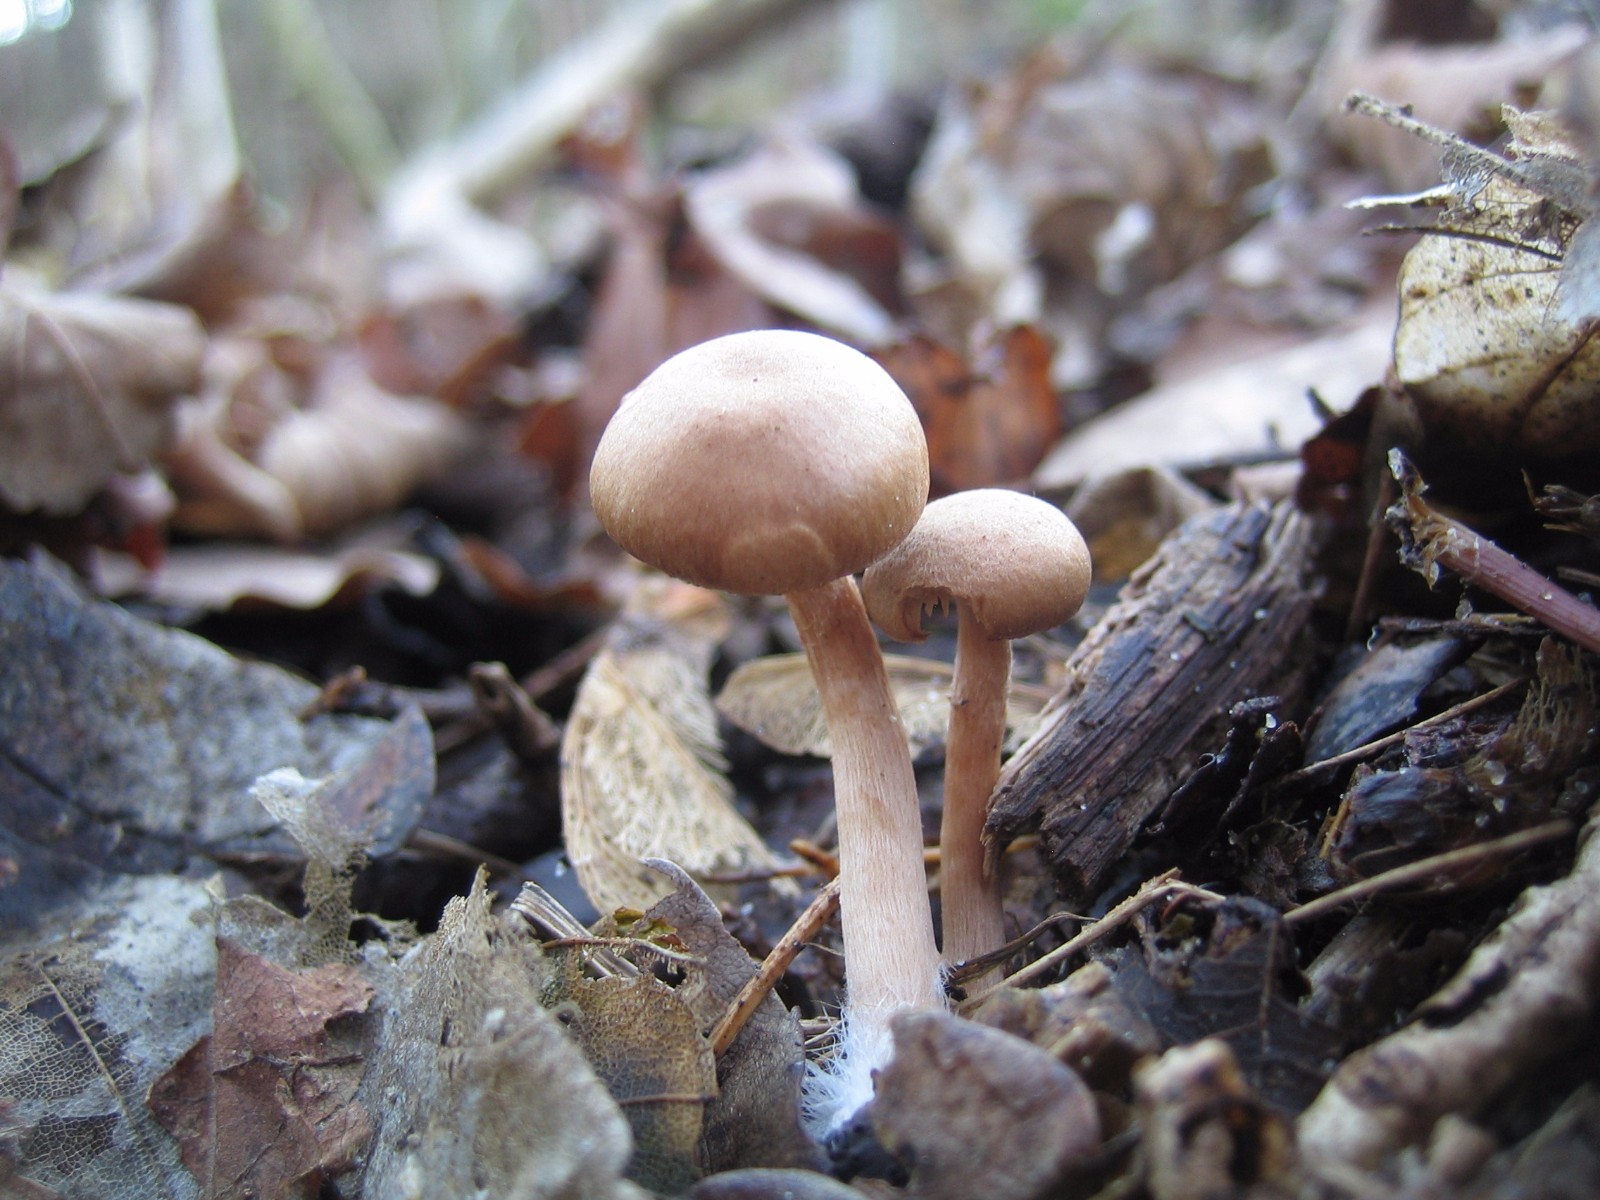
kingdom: Fungi
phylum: Basidiomycota
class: Agaricomycetes
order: Agaricales
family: Tubariaceae
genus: Tubaria
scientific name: Tubaria furfuracea
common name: kliddet fnughat
